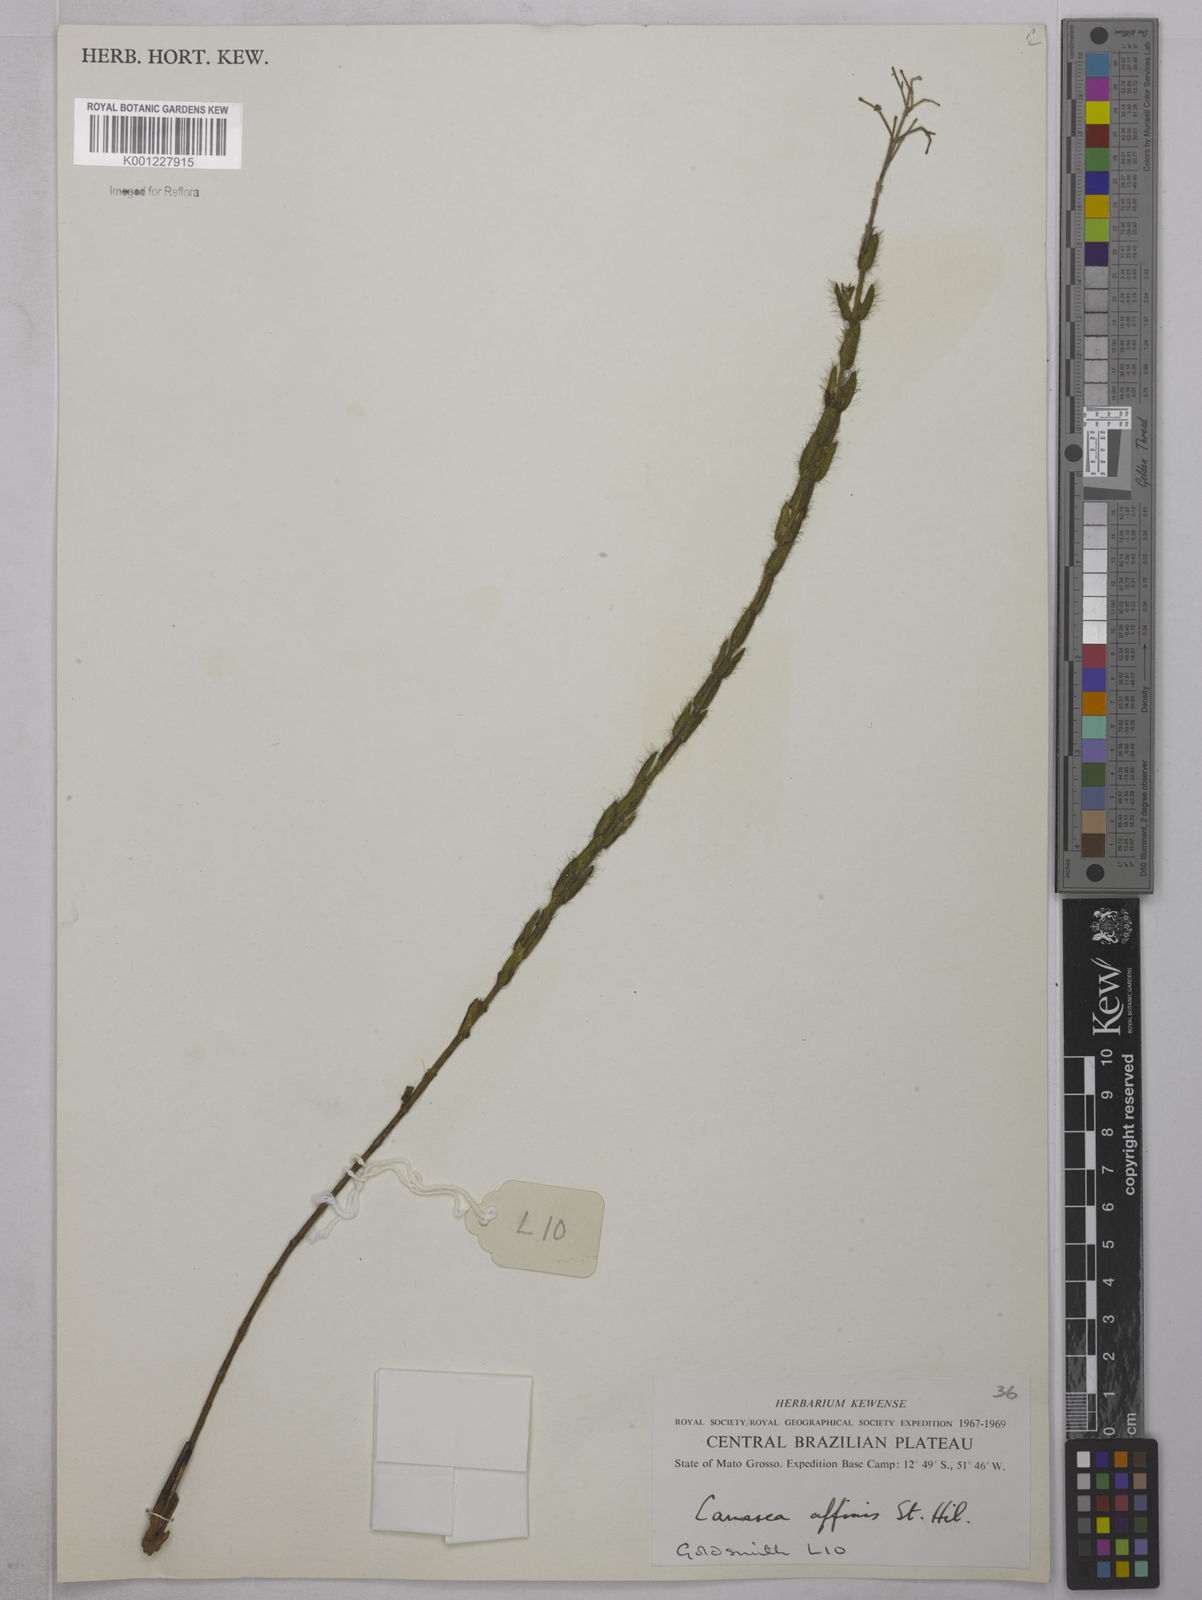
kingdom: Plantae
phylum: Tracheophyta
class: Magnoliopsida
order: Malpighiales
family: Malpighiaceae
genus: Camarea
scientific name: Camarea affinis
